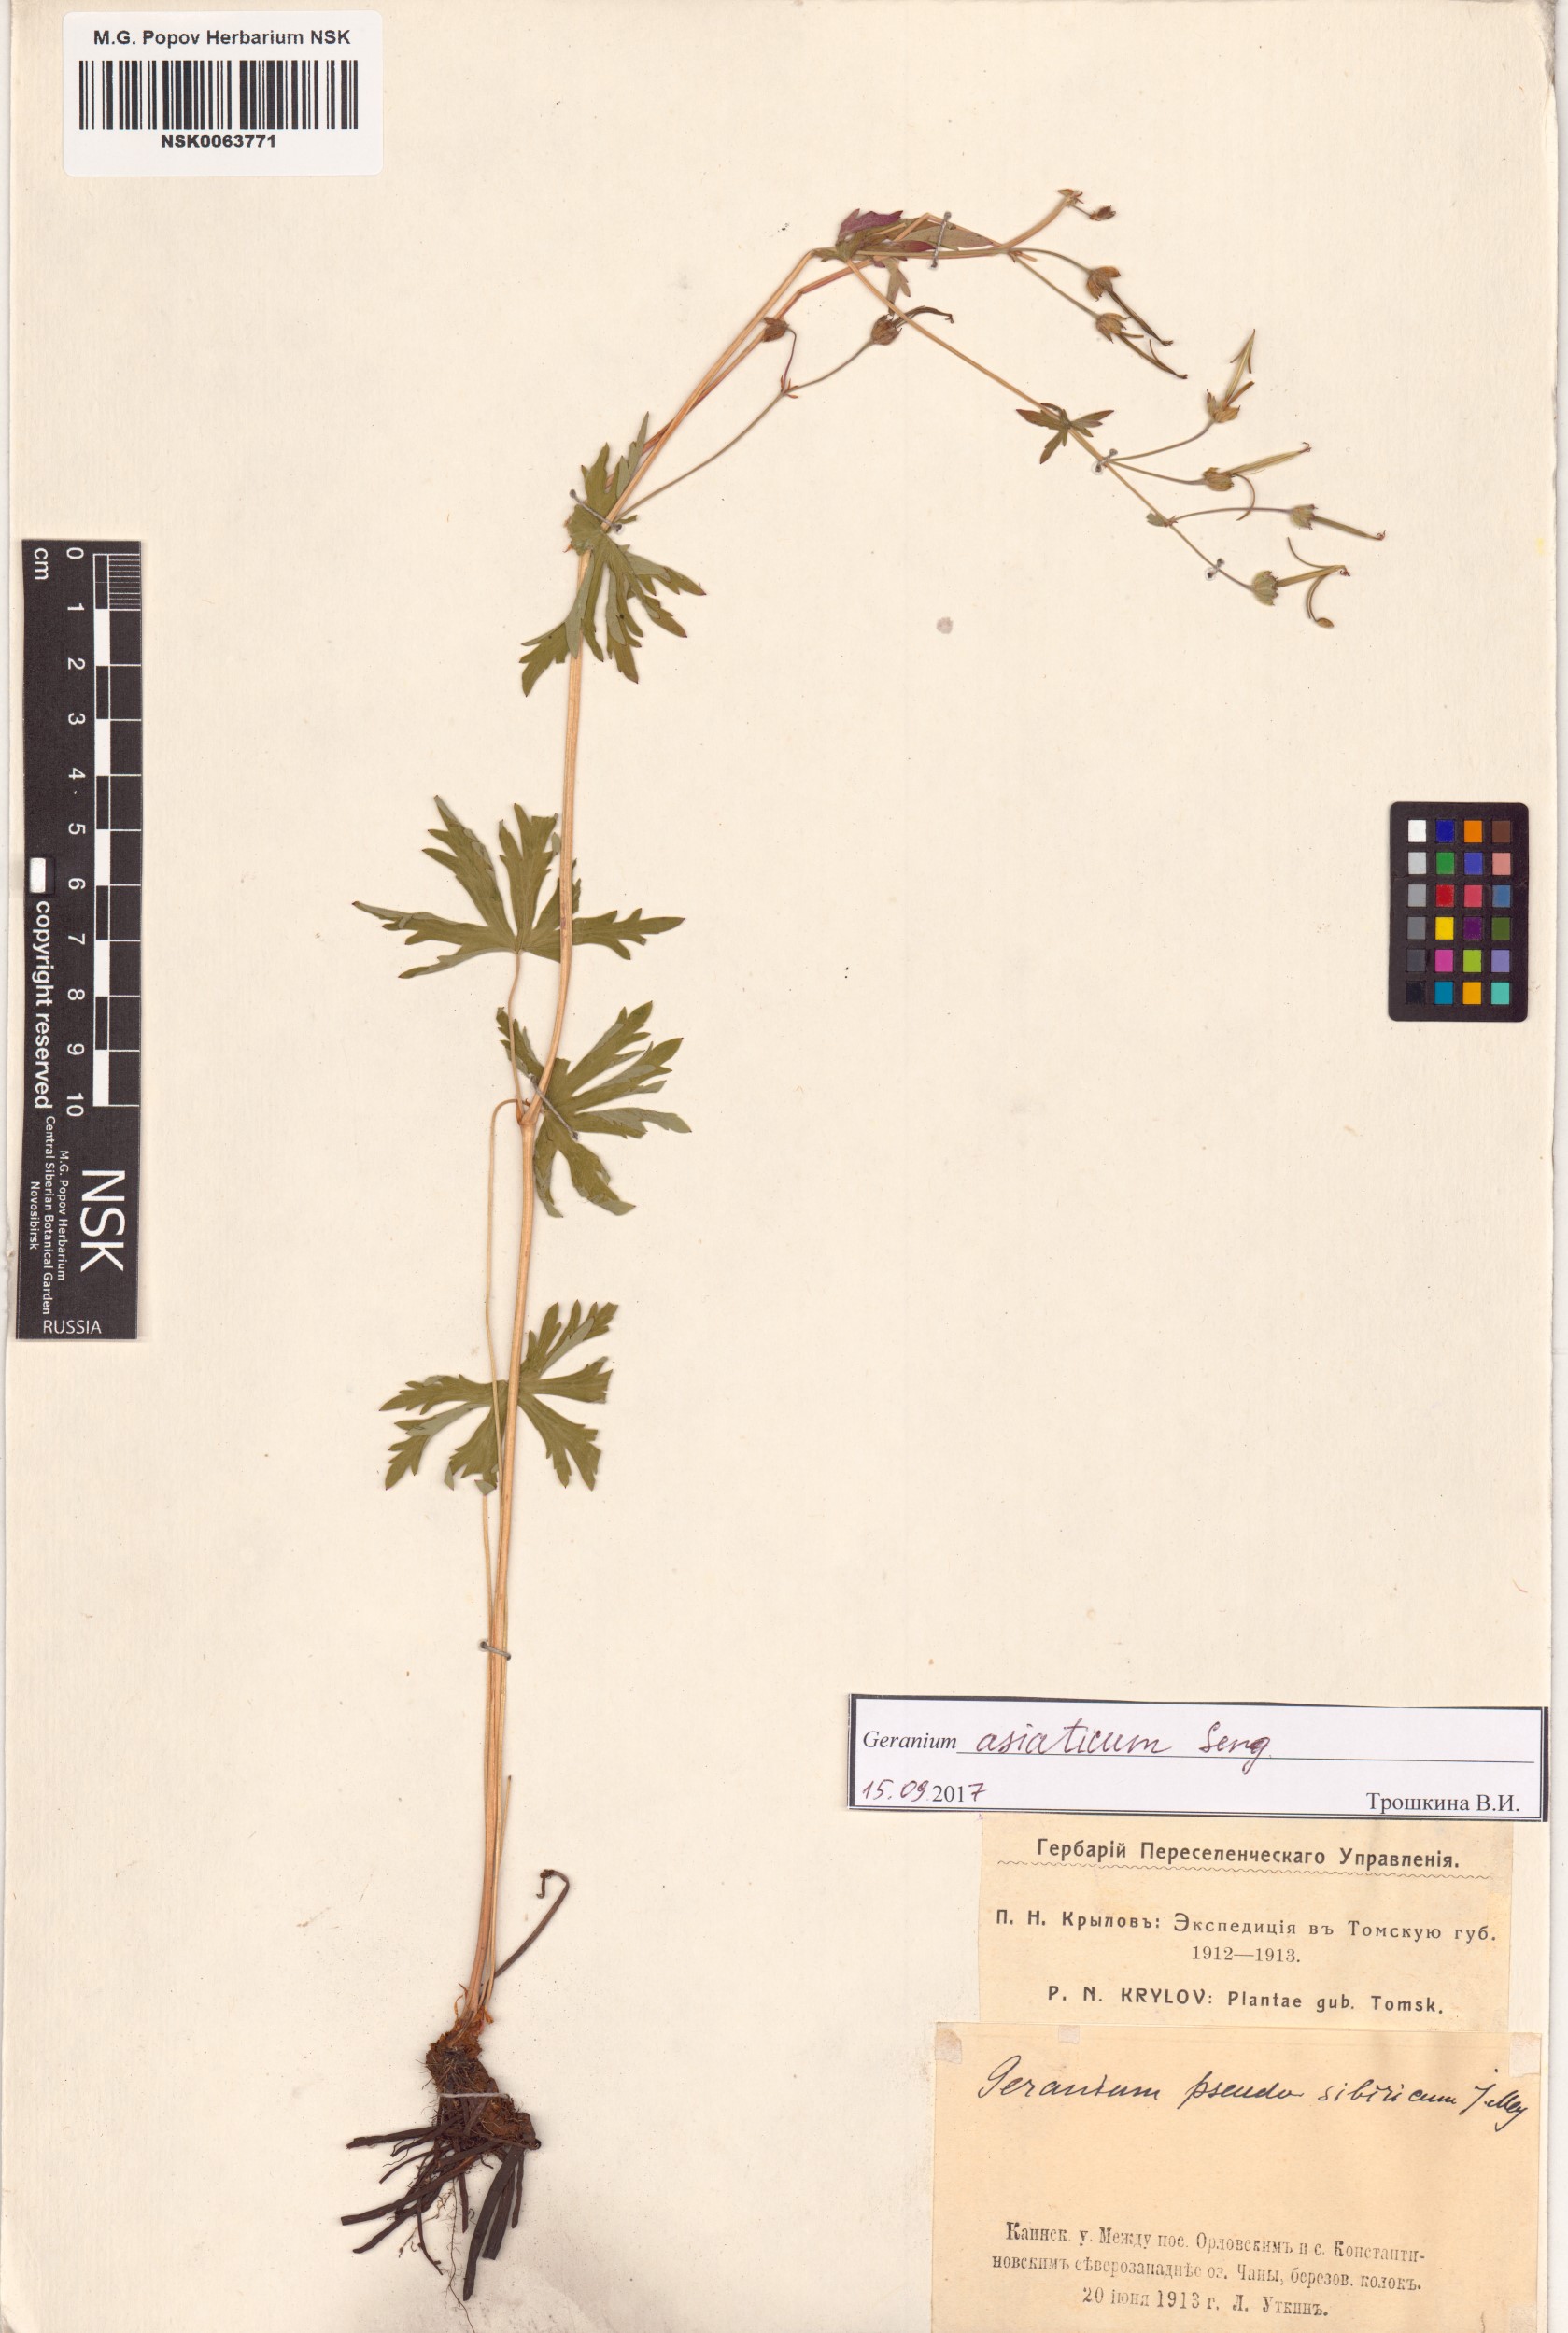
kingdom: Plantae
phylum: Tracheophyta
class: Magnoliopsida
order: Geraniales
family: Geraniaceae
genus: Geranium
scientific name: Geranium pseudosibiricum
